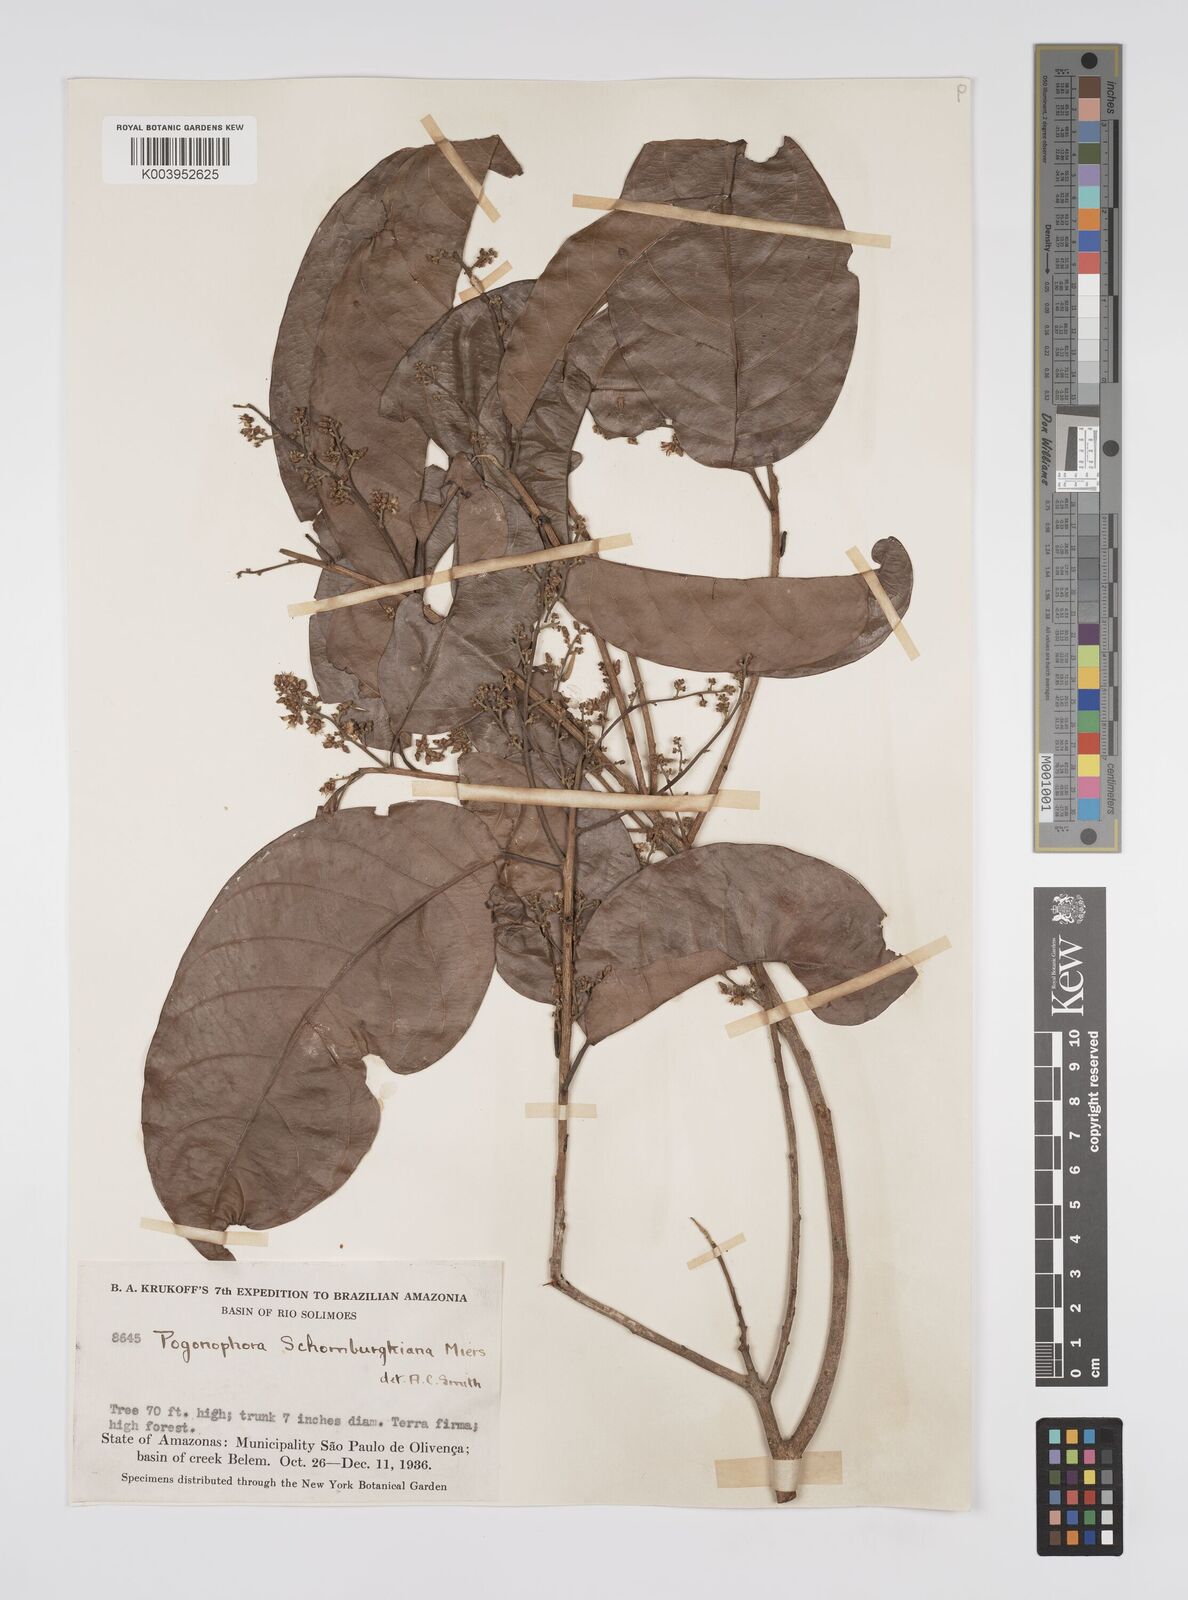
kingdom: Plantae
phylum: Tracheophyta
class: Magnoliopsida
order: Malpighiales
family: Peraceae
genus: Pogonophora
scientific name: Pogonophora schomburgkiana
